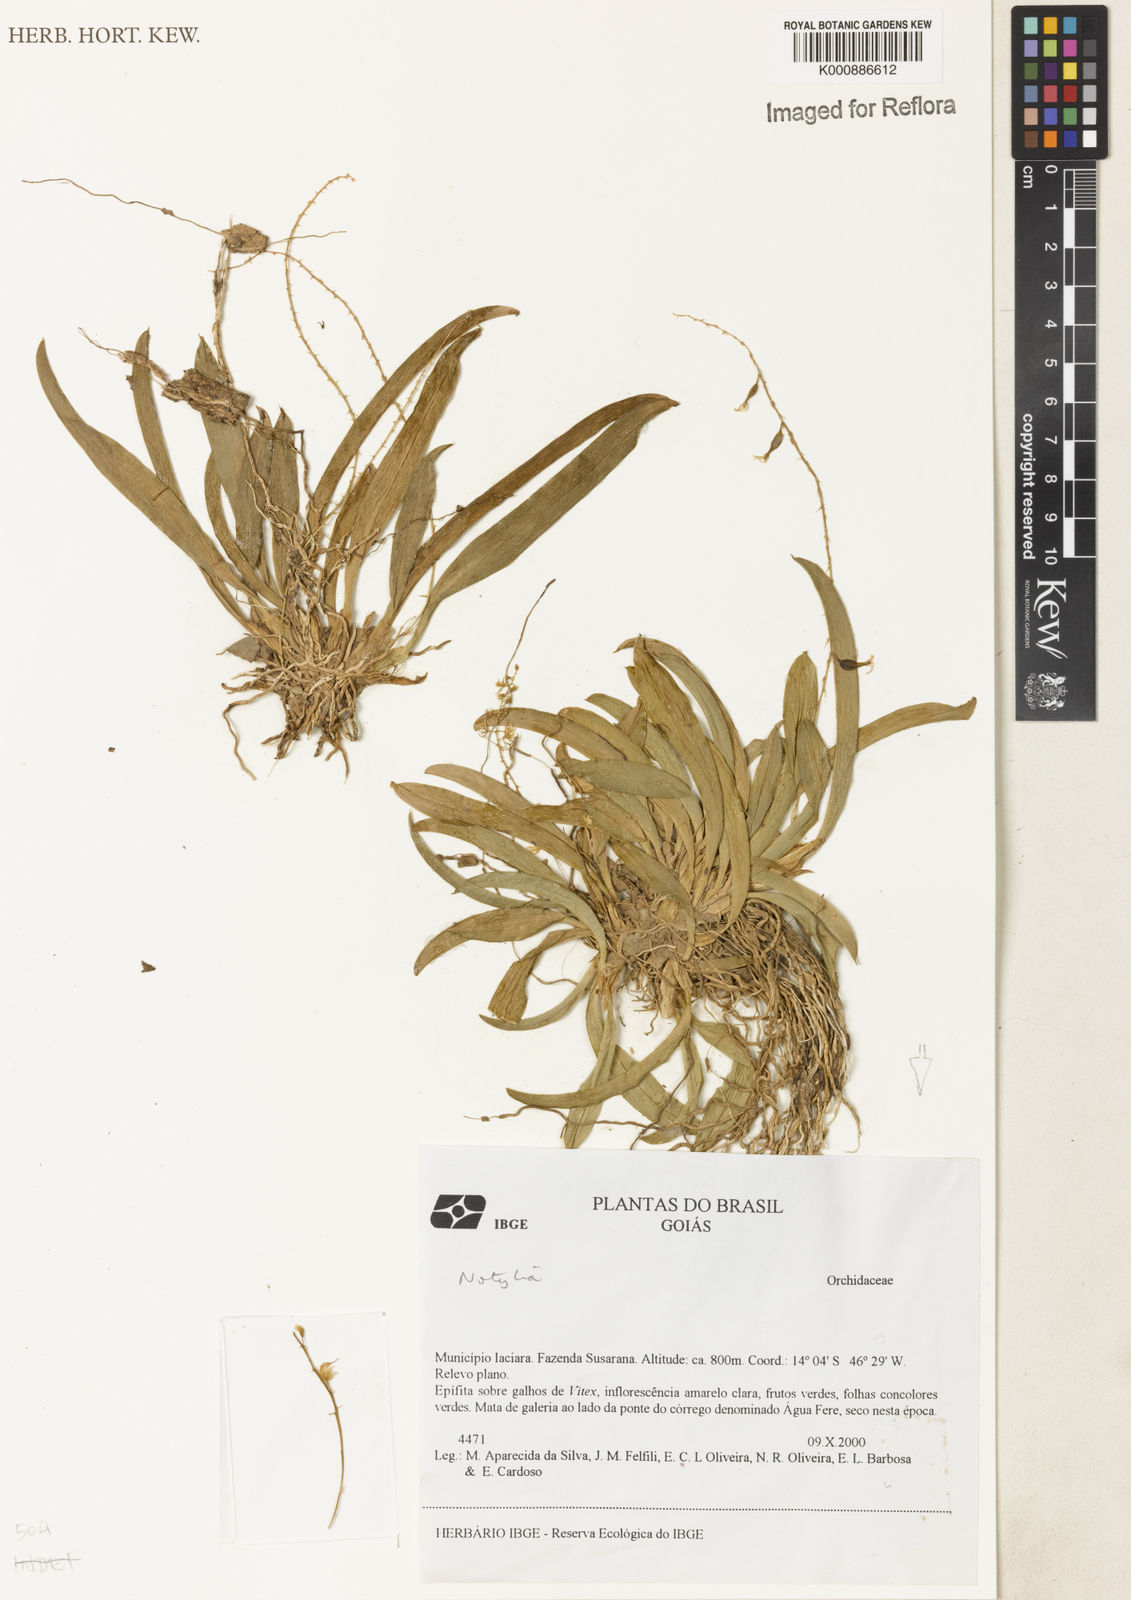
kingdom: Plantae
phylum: Tracheophyta
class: Liliopsida
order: Asparagales
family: Orchidaceae
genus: Notylia
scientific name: Notylia
